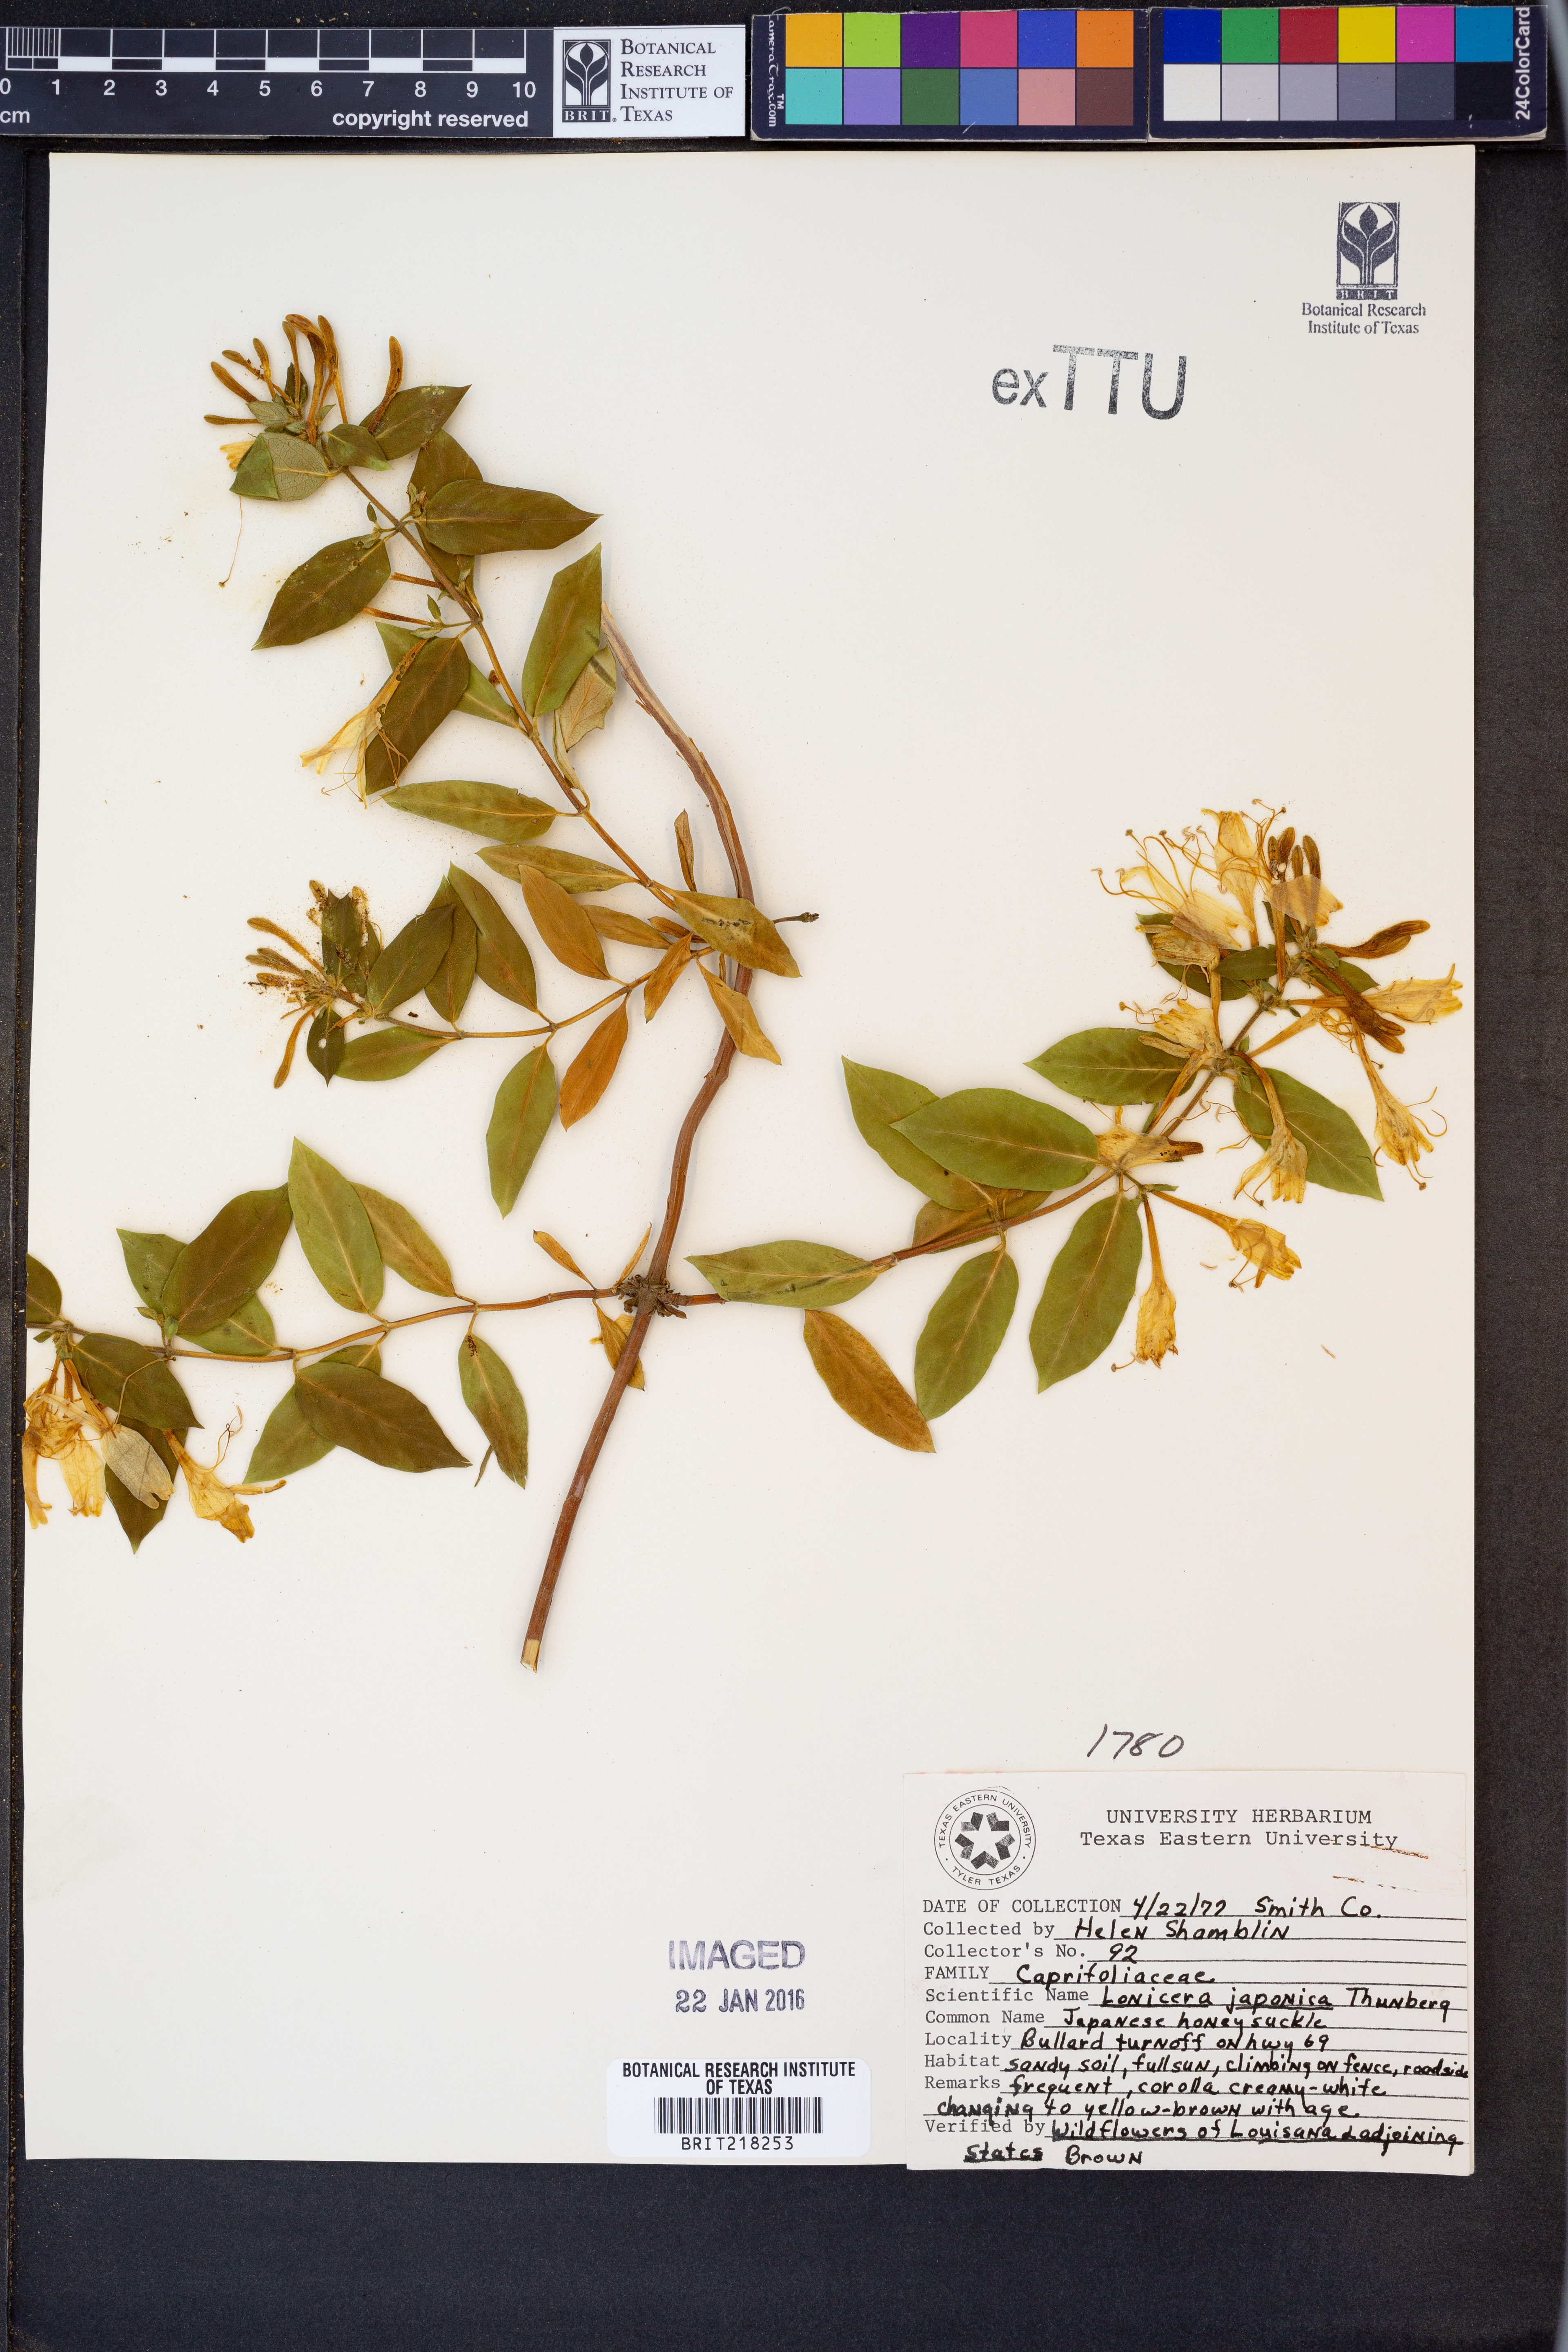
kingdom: Plantae
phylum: Tracheophyta
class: Magnoliopsida
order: Dipsacales
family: Caprifoliaceae
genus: Lonicera
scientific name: Lonicera japonica
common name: Japanese honeysuckle
